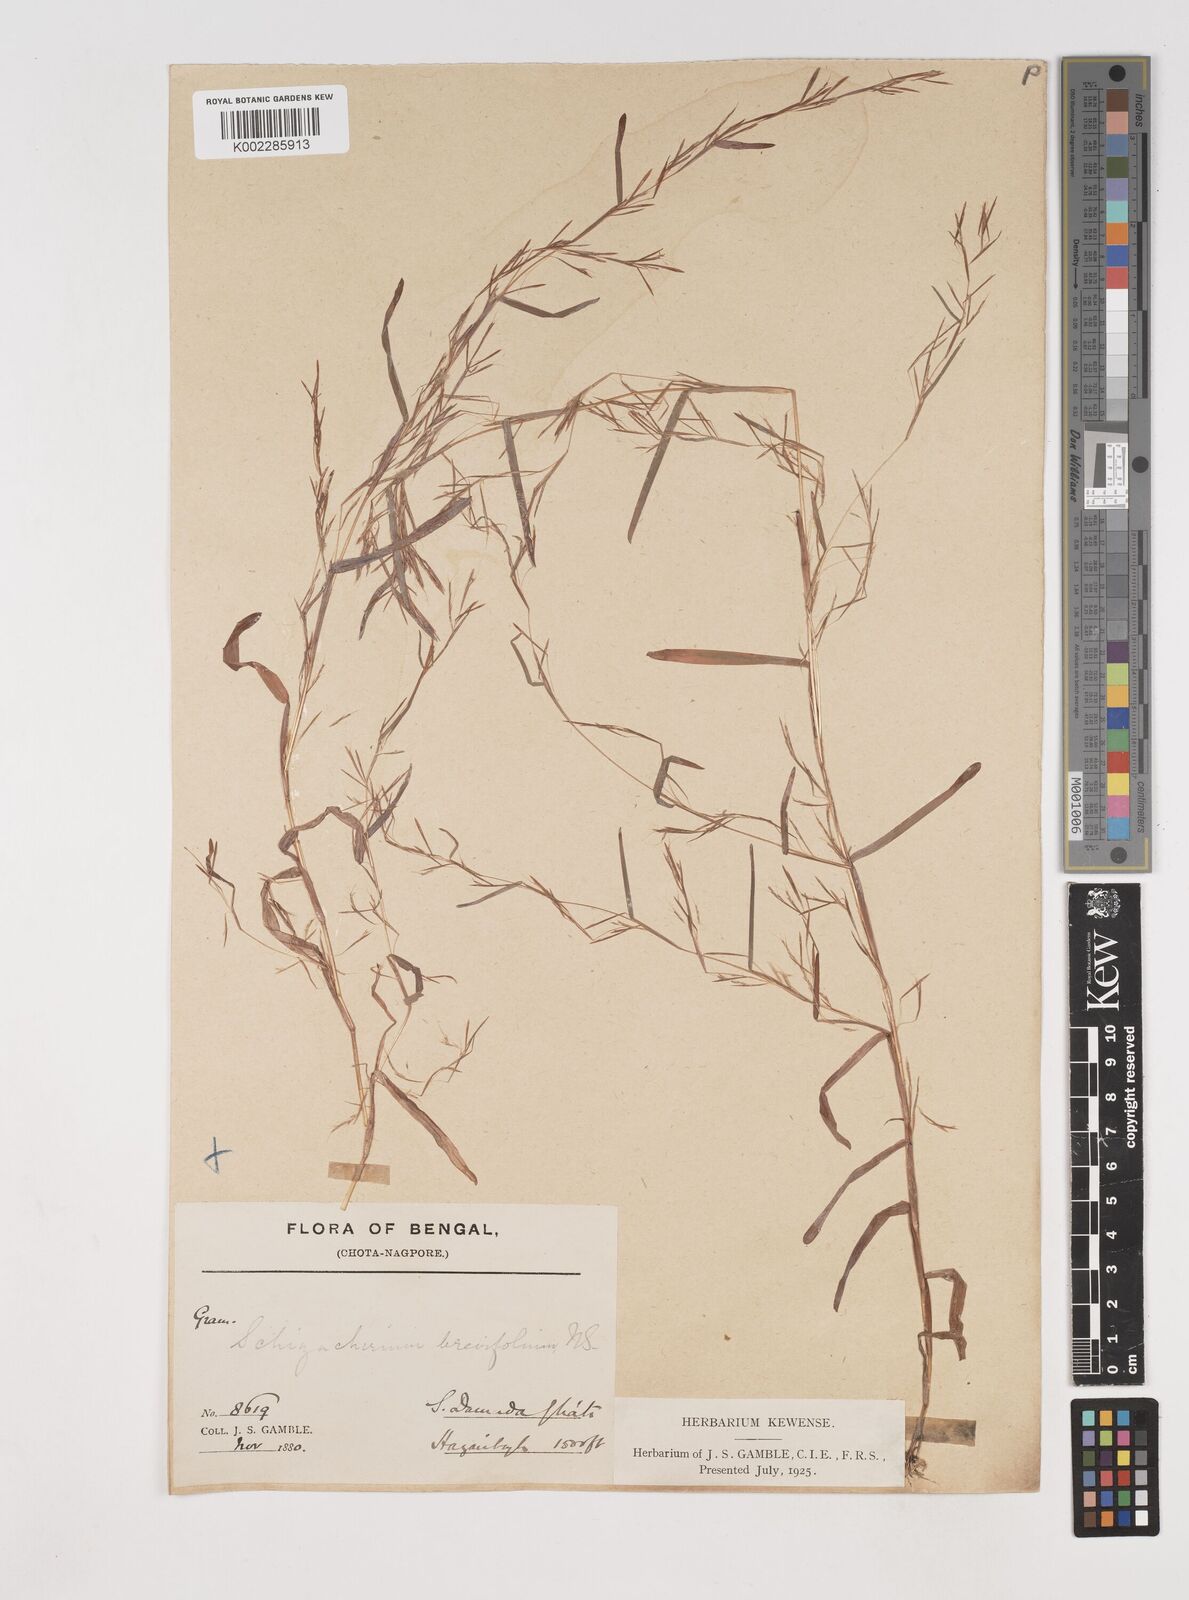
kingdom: Plantae
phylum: Tracheophyta
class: Liliopsida
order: Poales
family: Poaceae
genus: Schizachyrium
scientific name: Schizachyrium brevifolium
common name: Serillo dulce
